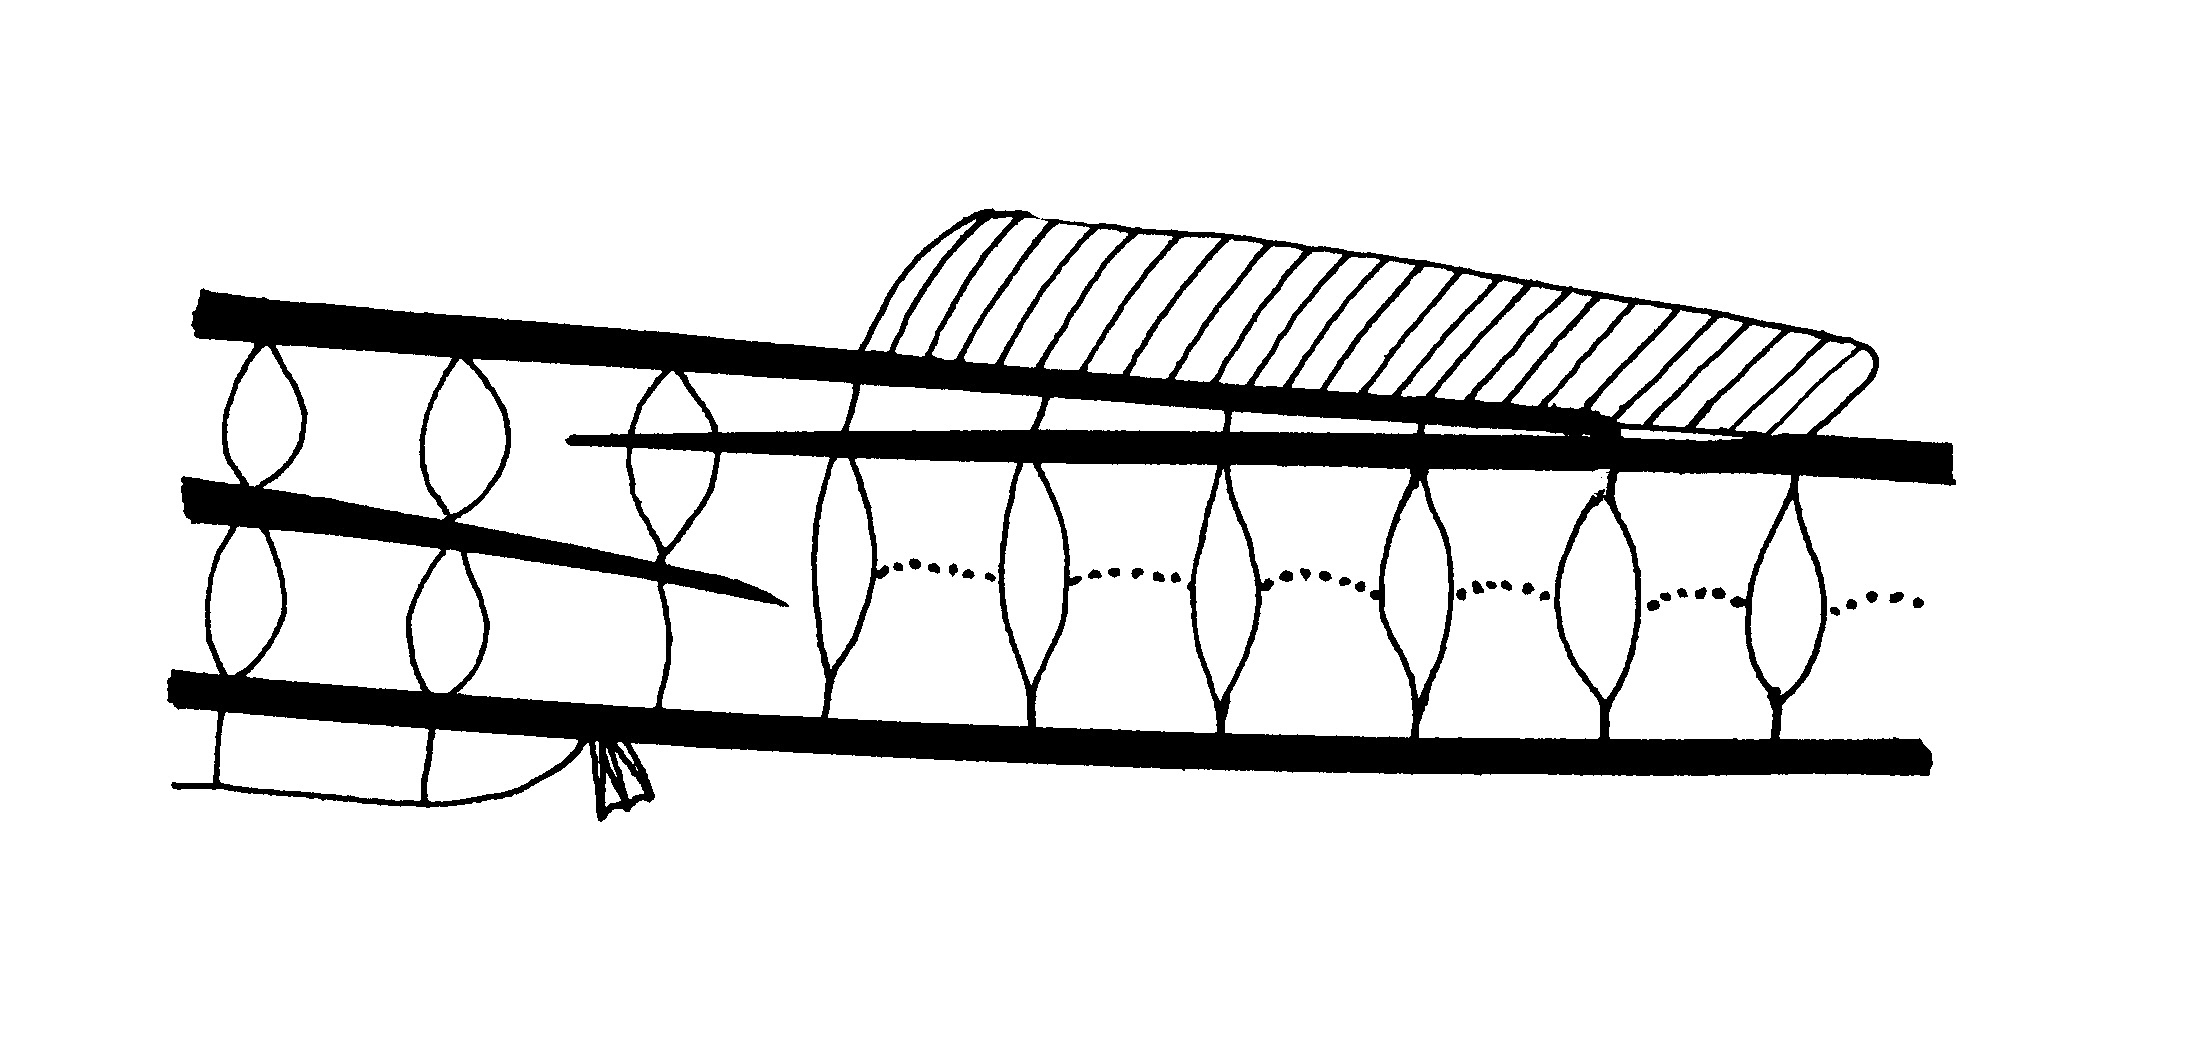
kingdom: Animalia
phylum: Chordata
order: Syngnathiformes
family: Syngnathidae
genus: Hippichthys
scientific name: Hippichthys
